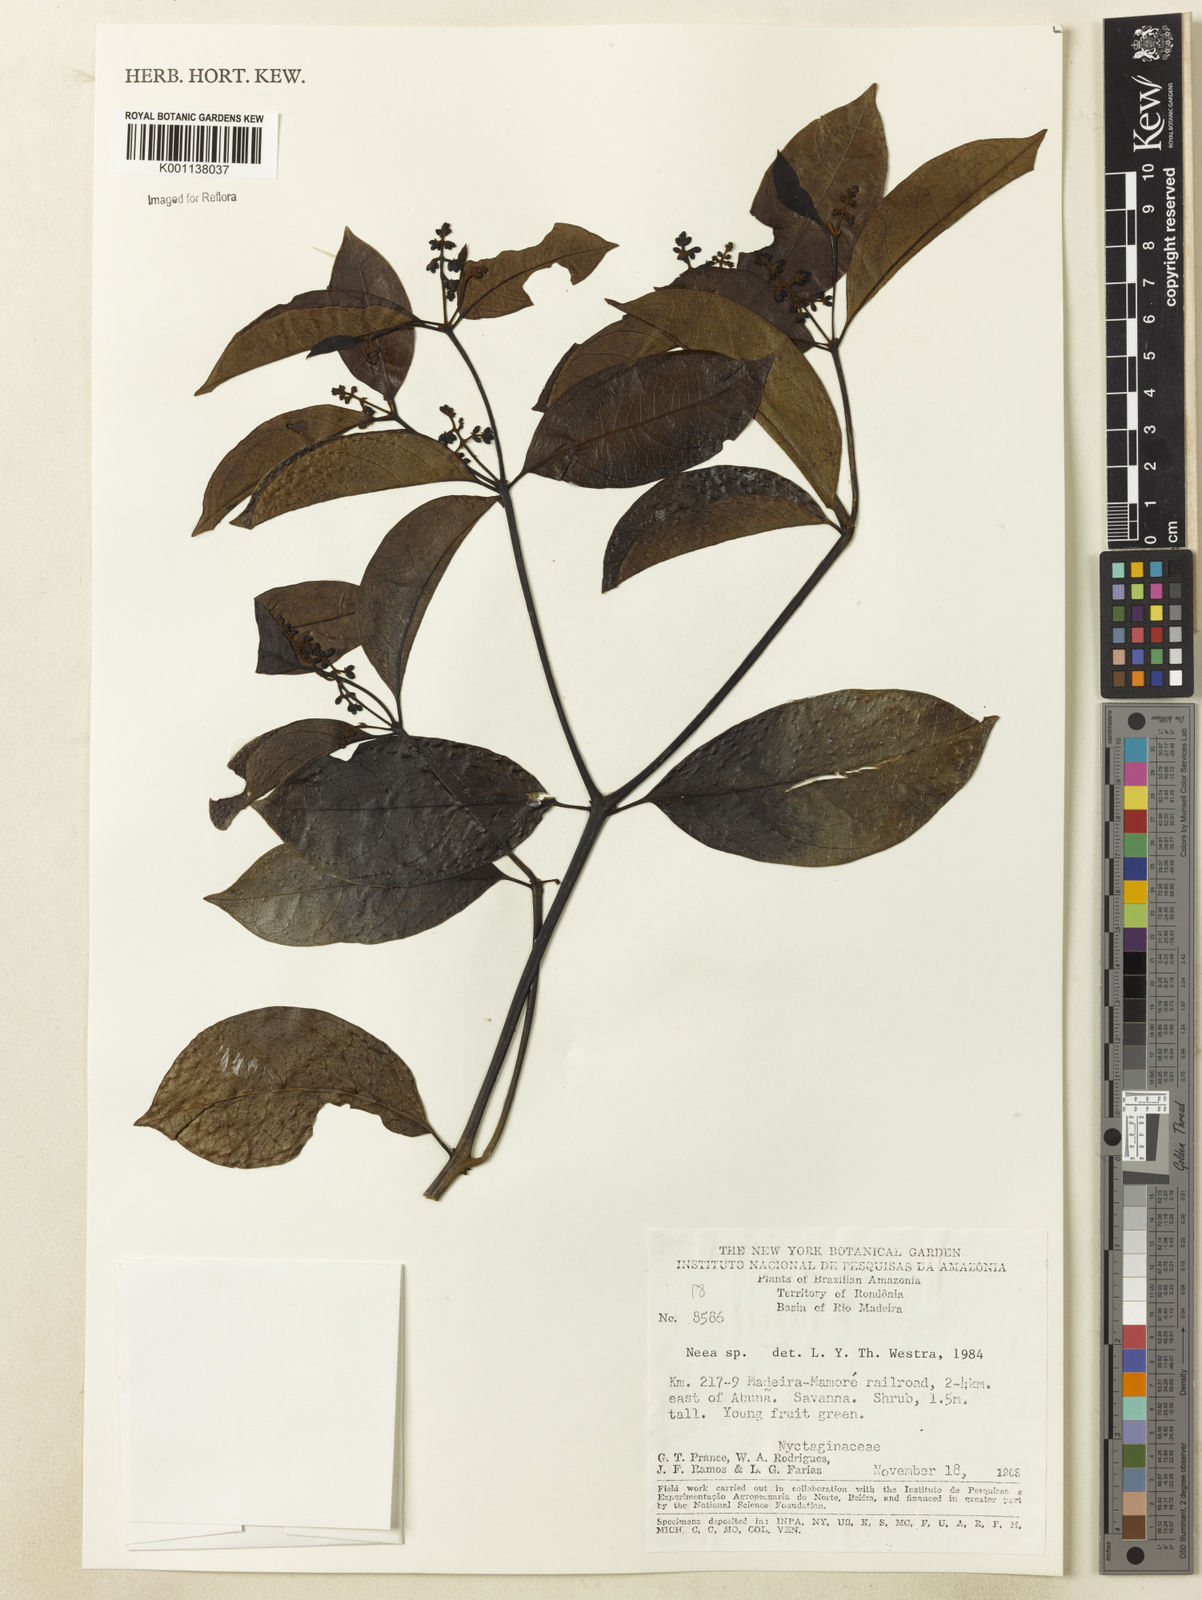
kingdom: Plantae
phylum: Tracheophyta
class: Magnoliopsida
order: Caryophyllales
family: Nyctaginaceae
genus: Neea
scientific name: Neea
